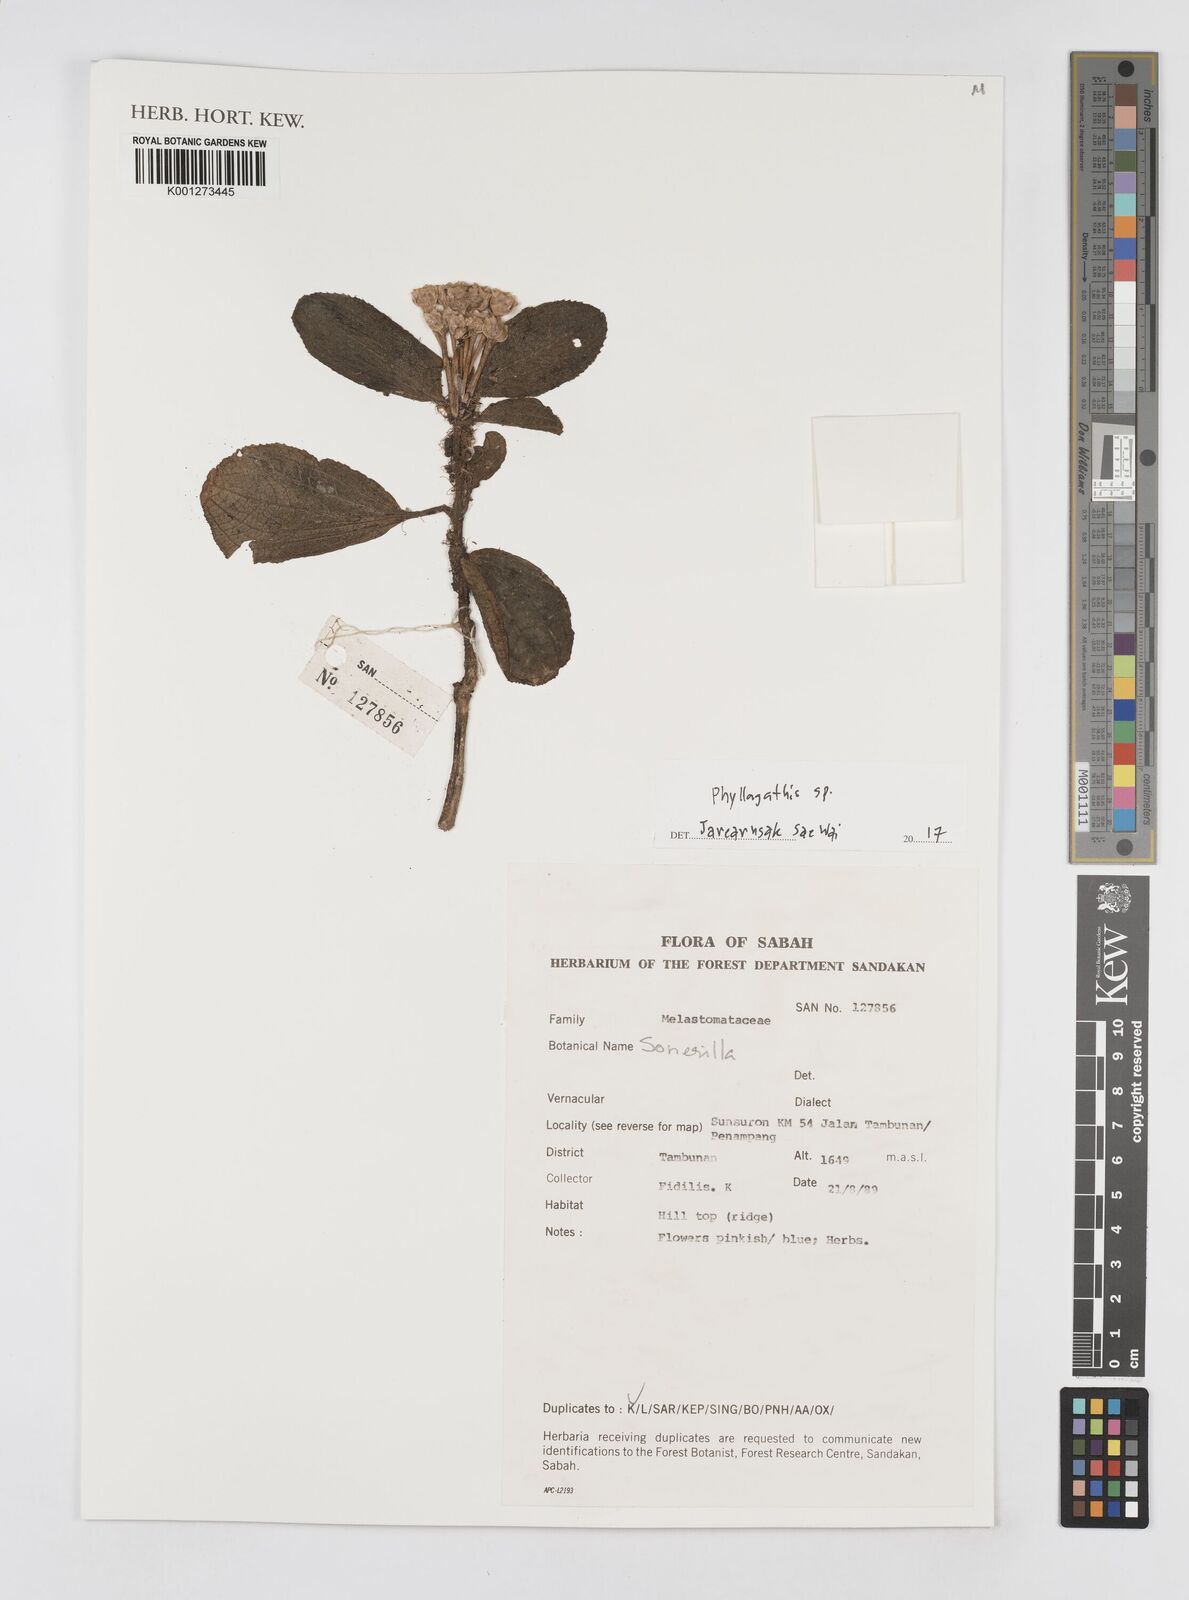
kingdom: Plantae
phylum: Tracheophyta
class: Magnoliopsida
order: Myrtales
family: Melastomataceae
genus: Phyllagathis
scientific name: Phyllagathis
